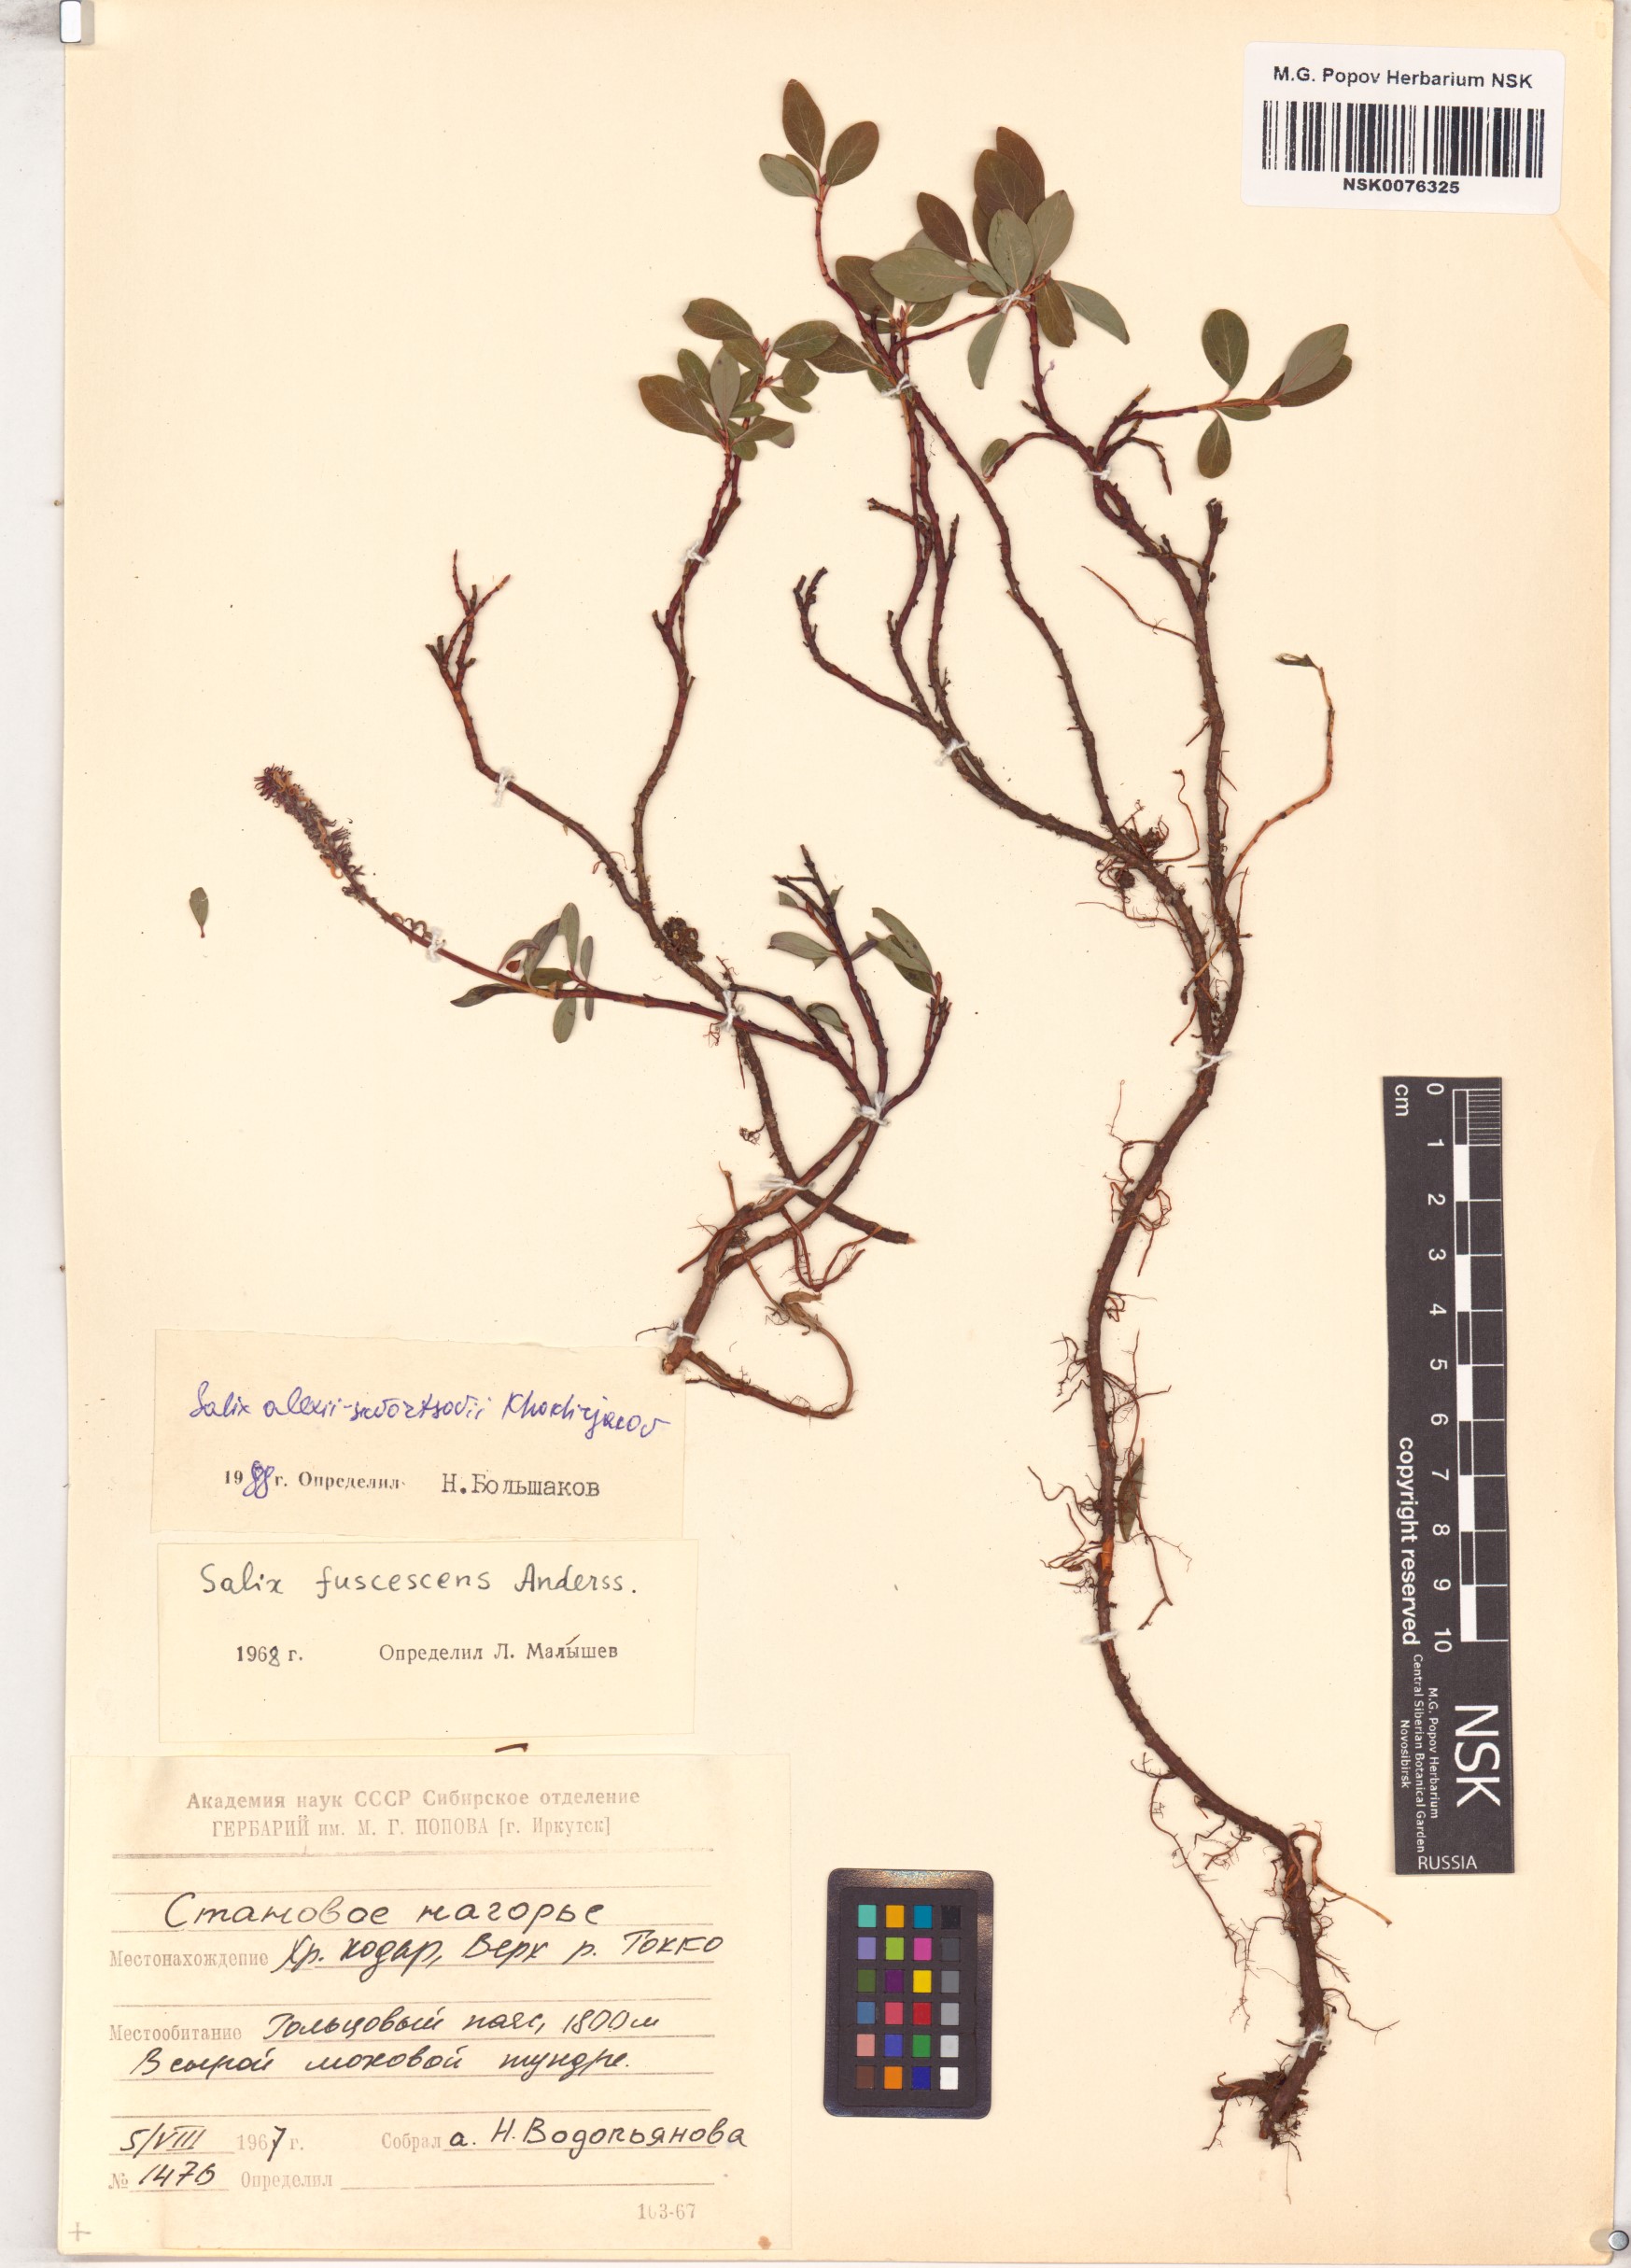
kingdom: Plantae
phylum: Tracheophyta
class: Magnoliopsida
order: Malpighiales
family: Salicaceae
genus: Salix
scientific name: Salix alexii-skvortzovii
